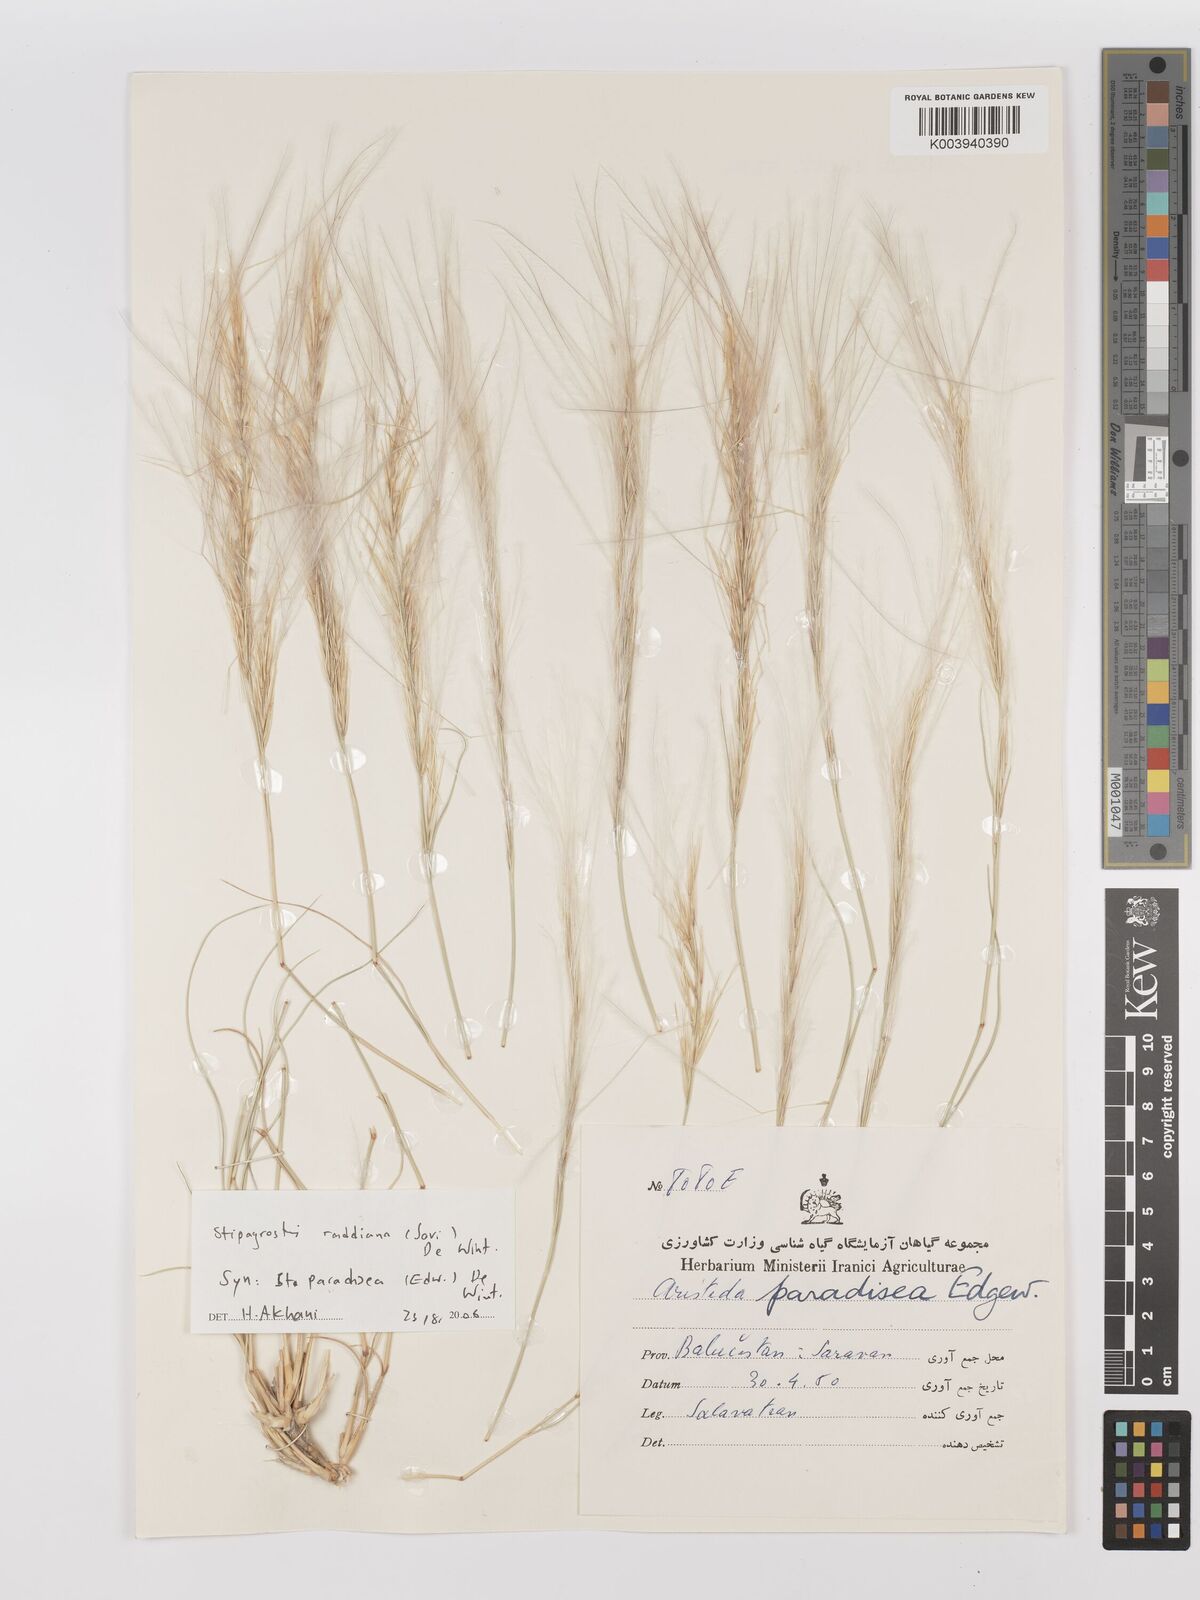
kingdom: Plantae
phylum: Tracheophyta
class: Liliopsida
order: Poales
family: Poaceae
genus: Stipagrostis
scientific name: Stipagrostis paradisea
